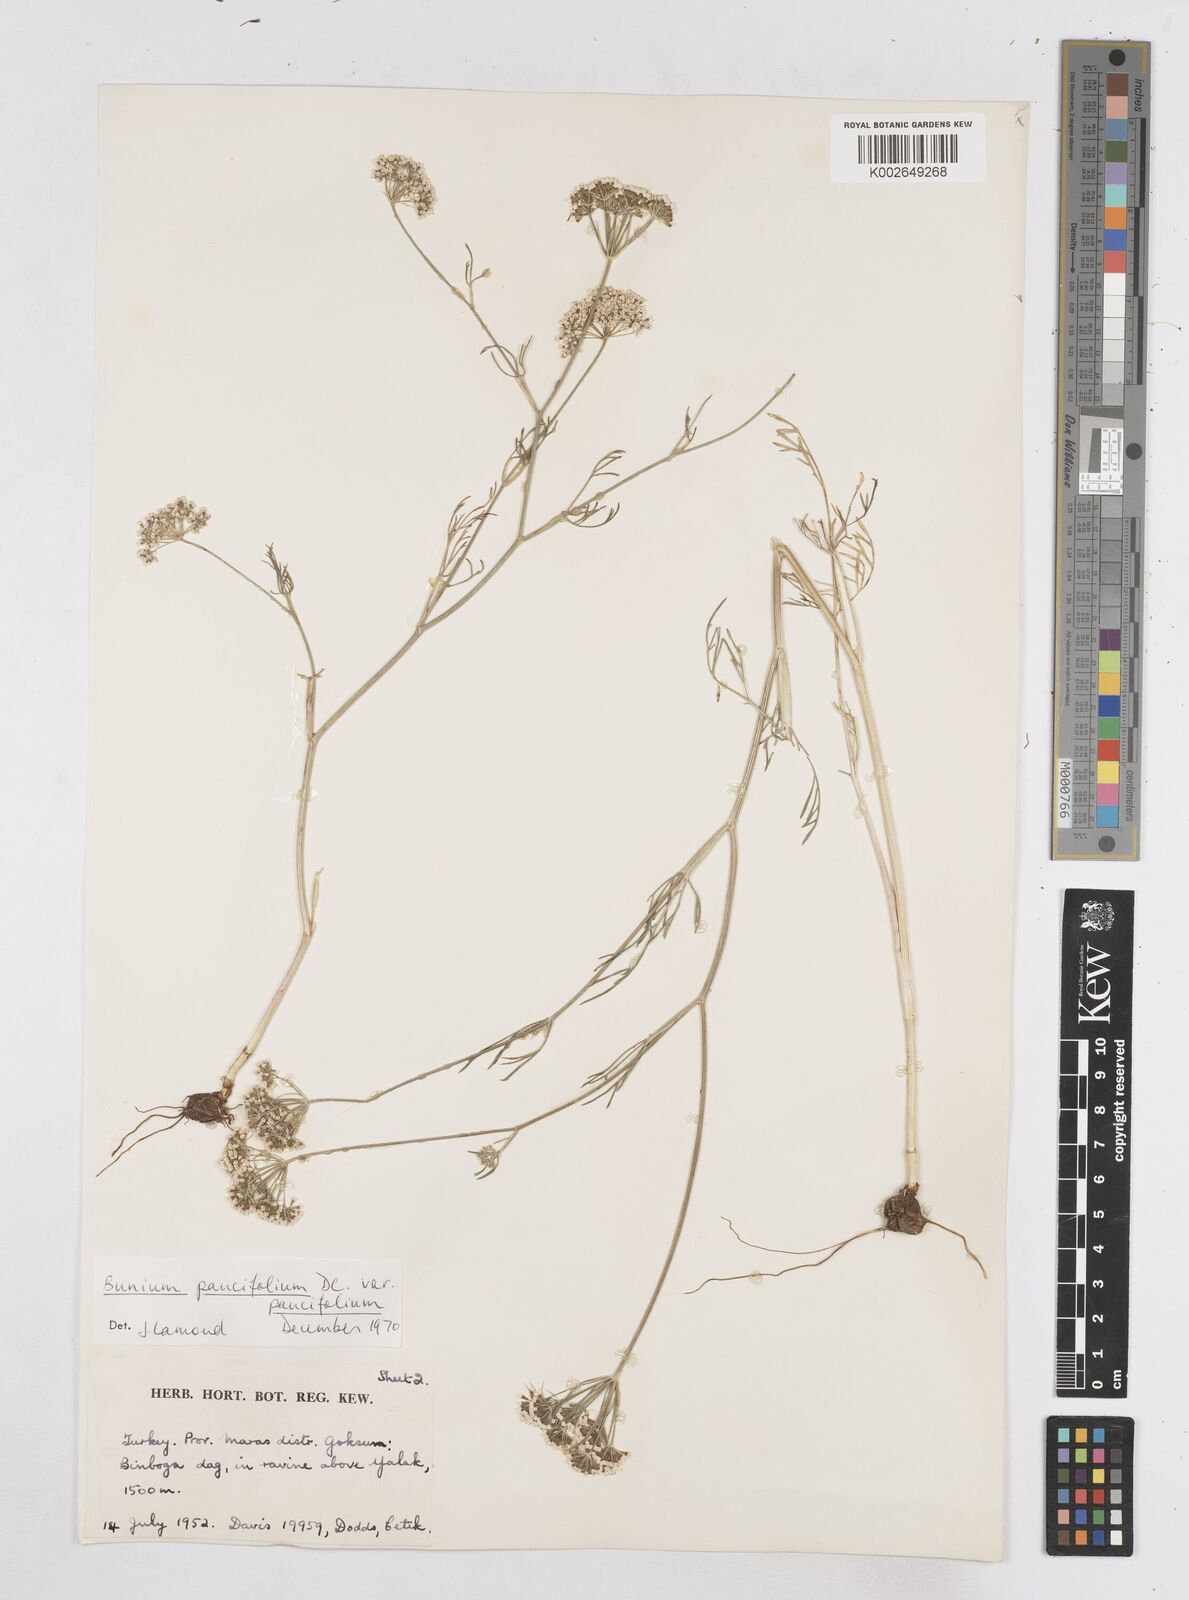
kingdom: Plantae
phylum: Tracheophyta
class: Magnoliopsida
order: Apiales
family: Apiaceae
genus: Bunium
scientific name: Bunium
